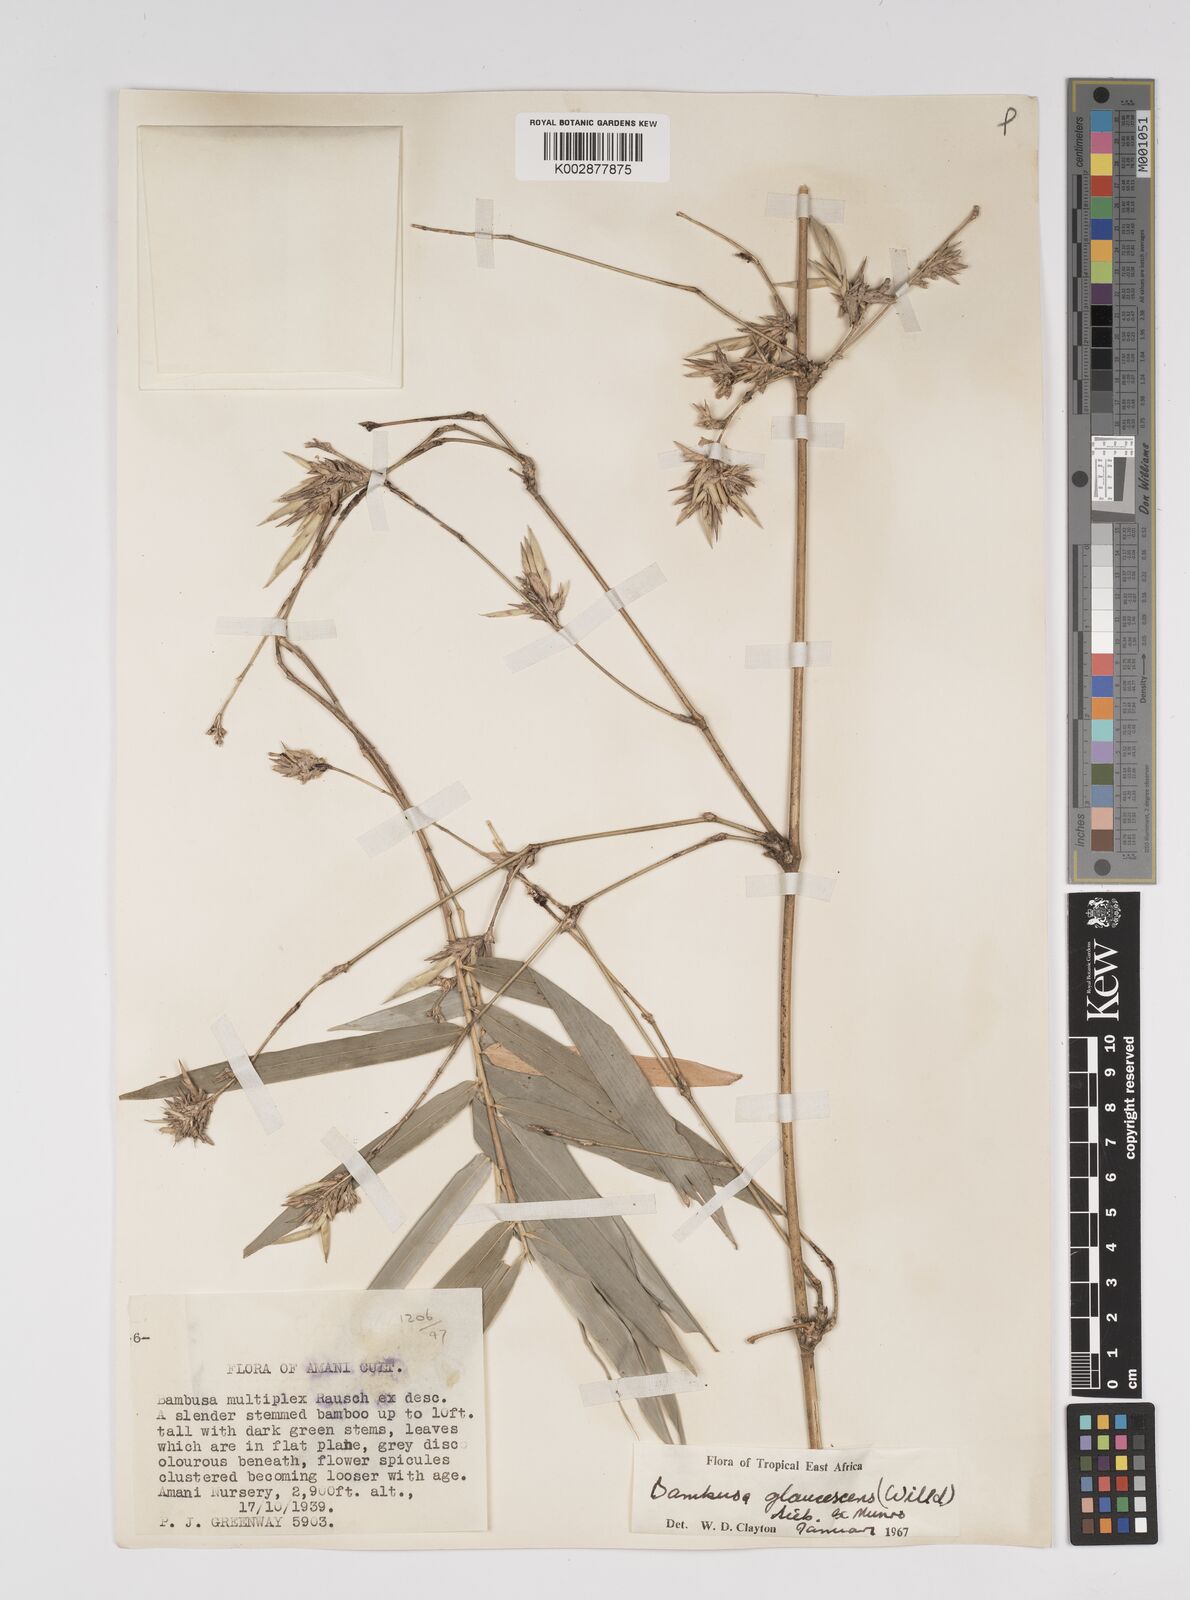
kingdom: Plantae
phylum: Tracheophyta
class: Liliopsida
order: Poales
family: Poaceae
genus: Bambusa
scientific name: Bambusa multiplex
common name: Hedge bamboo
